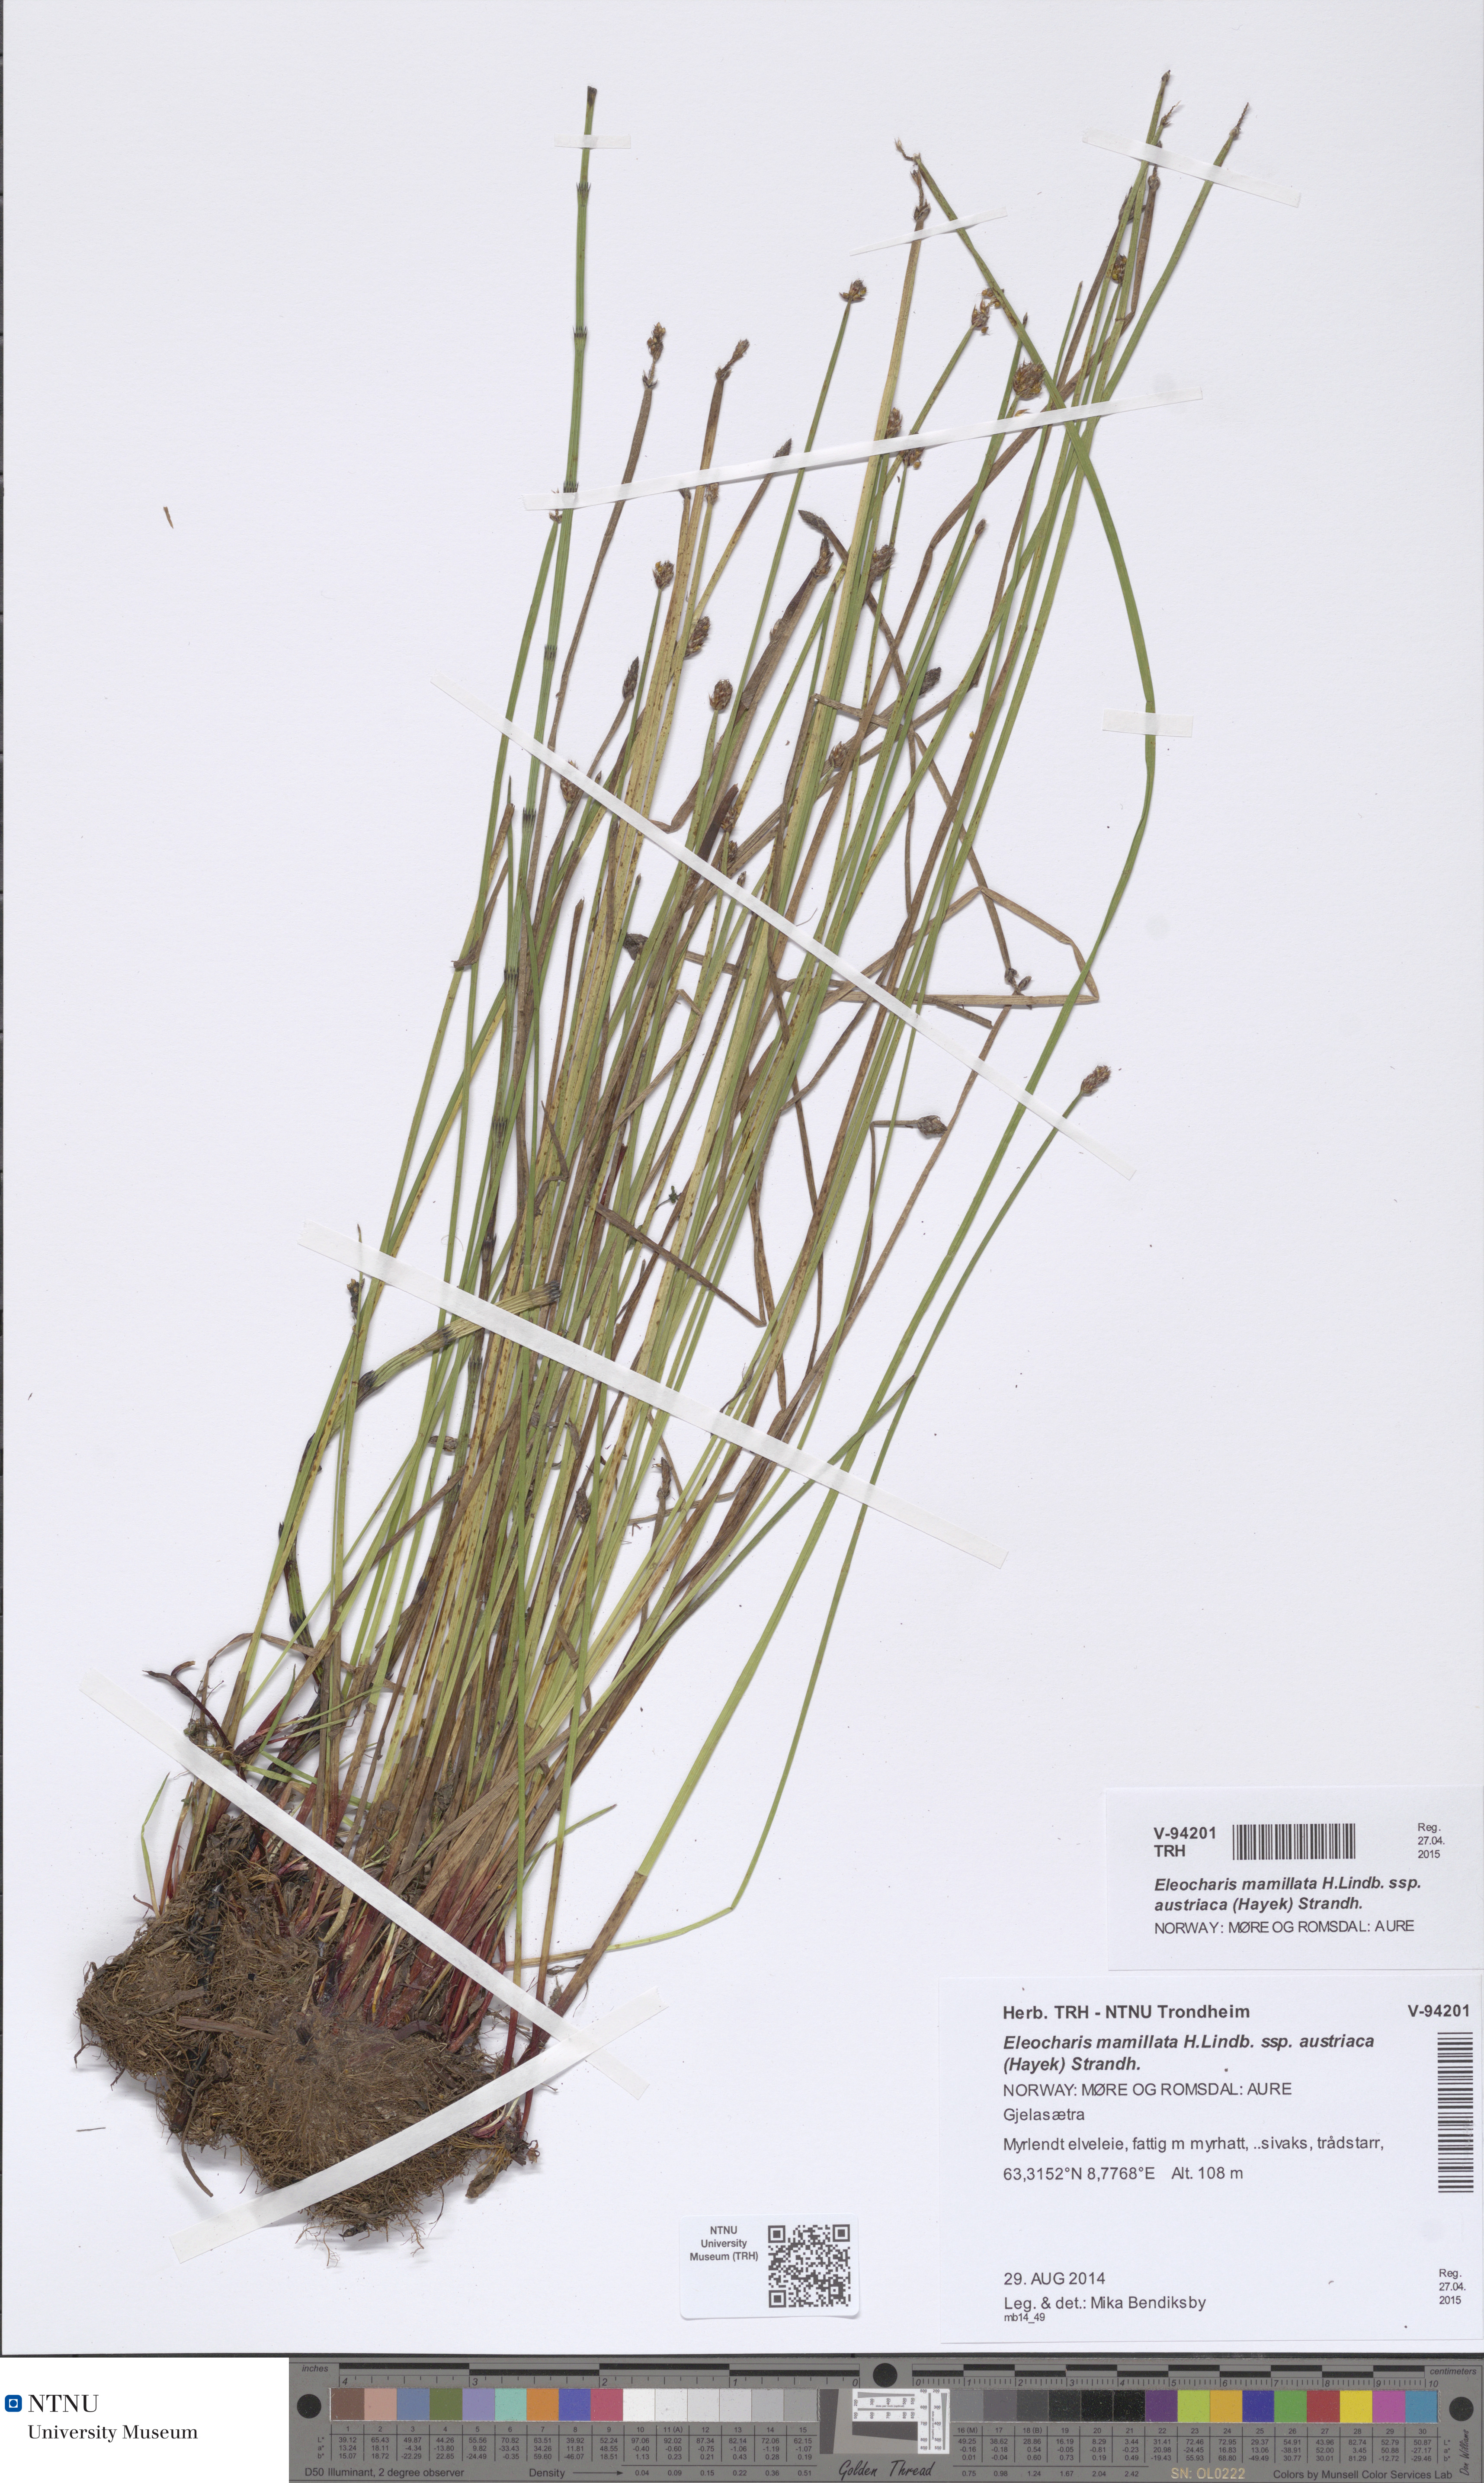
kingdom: Plantae
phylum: Tracheophyta
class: Liliopsida
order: Poales
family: Cyperaceae
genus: Eleocharis
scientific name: Eleocharis mamillata
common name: Northern spike-rush
